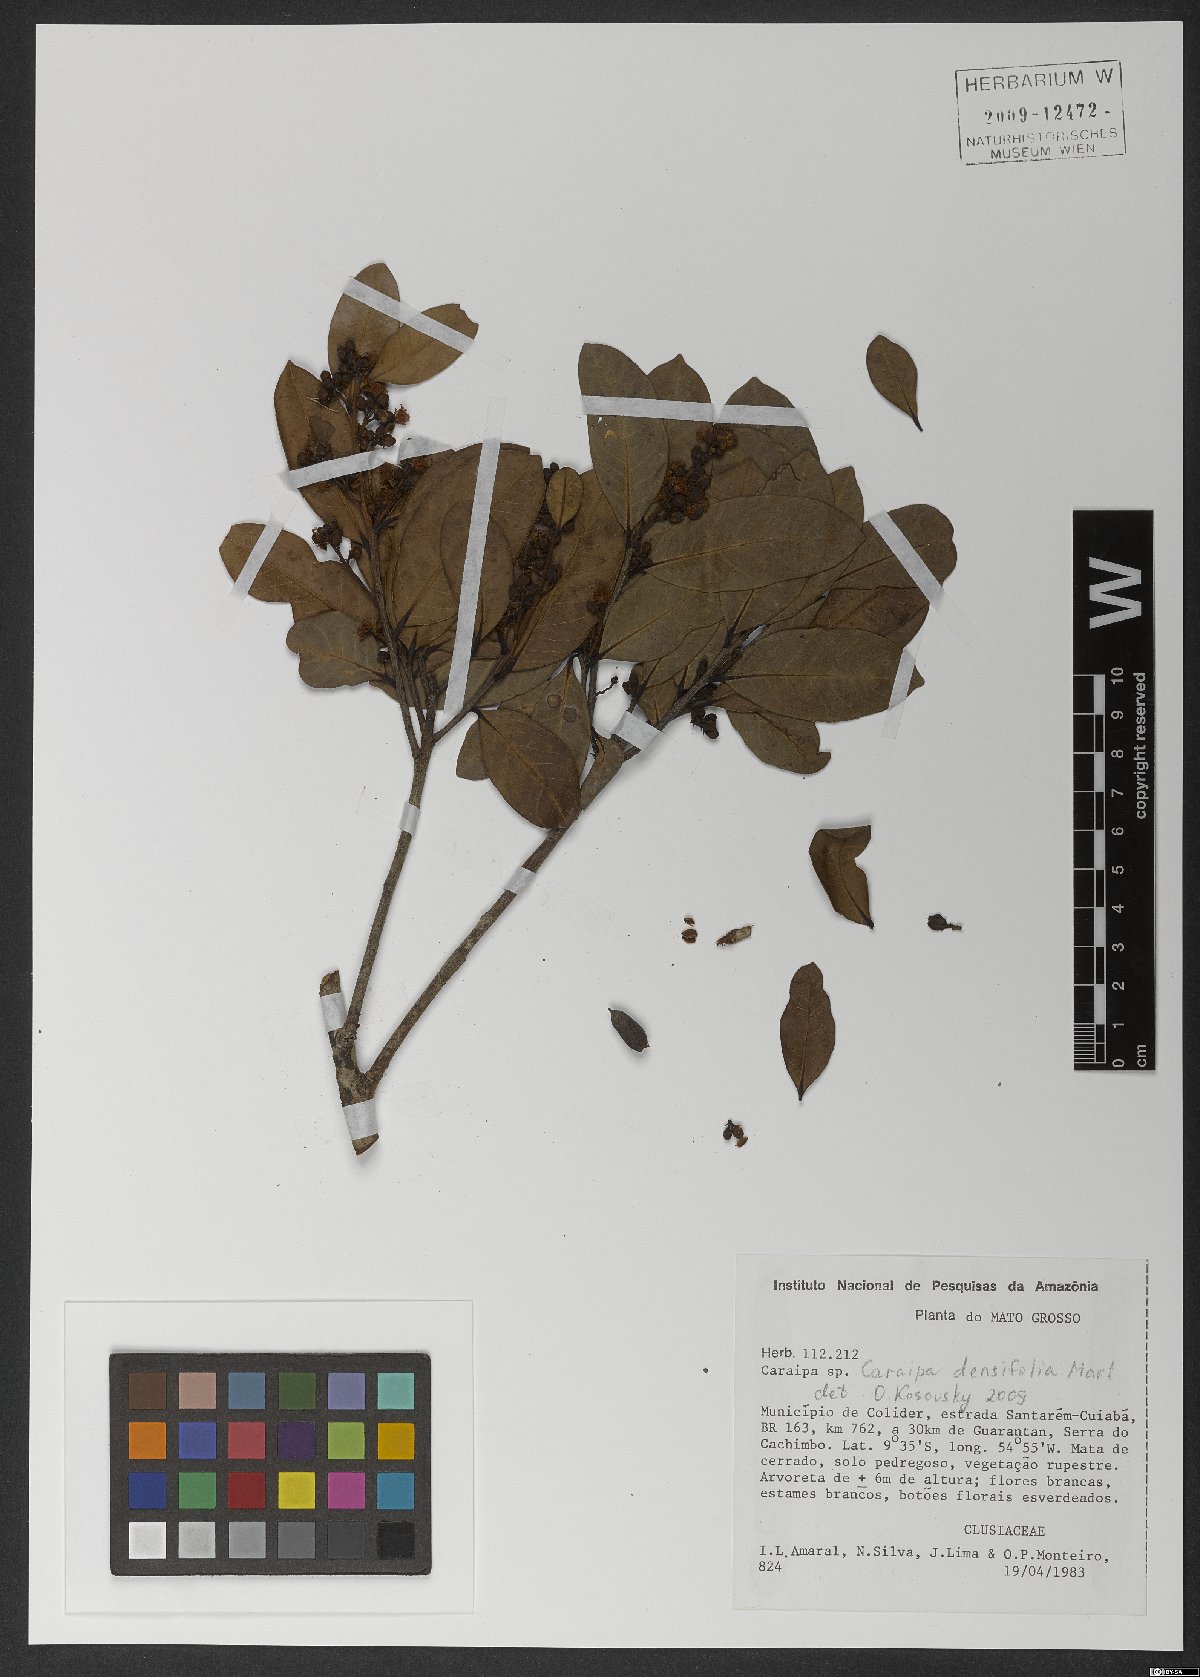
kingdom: Plantae
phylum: Tracheophyta
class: Magnoliopsida
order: Malpighiales
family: Calophyllaceae
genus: Caraipa
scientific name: Caraipa densifolia
